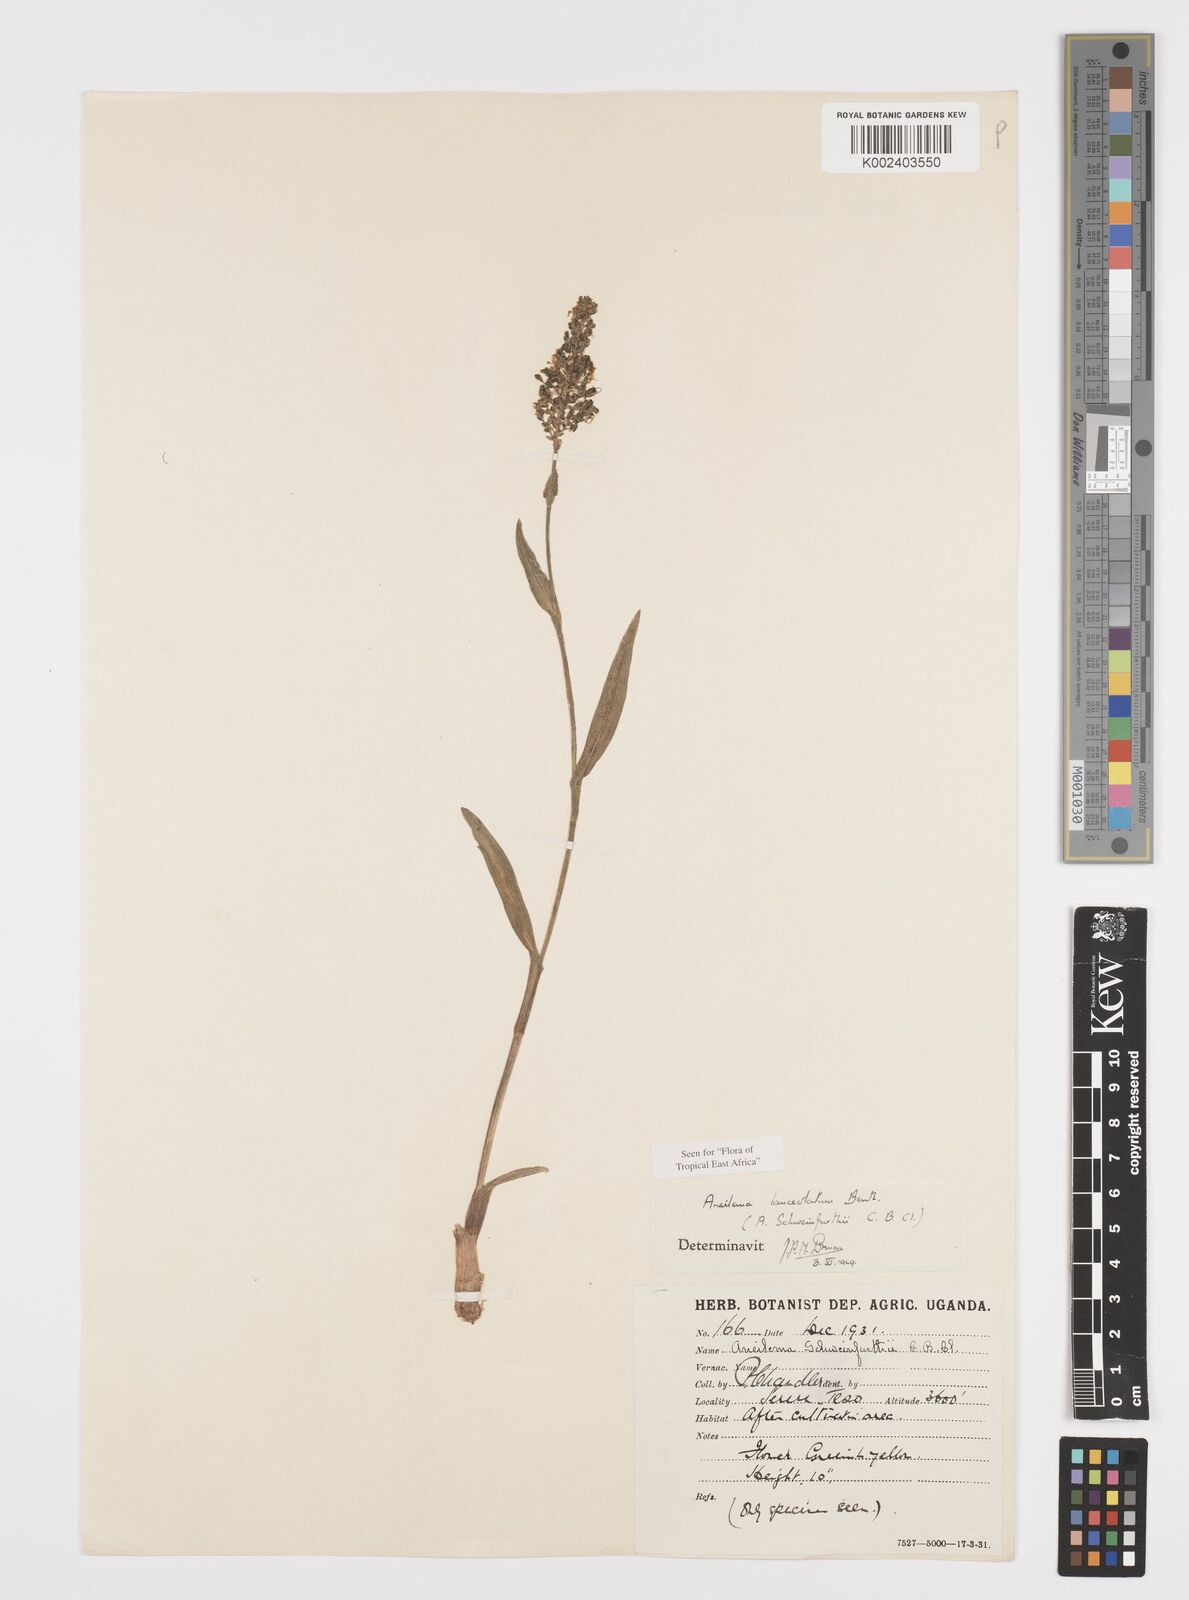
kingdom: Plantae
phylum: Tracheophyta
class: Liliopsida
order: Commelinales
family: Commelinaceae
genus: Aneilema
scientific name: Aneilema lanceolatum
